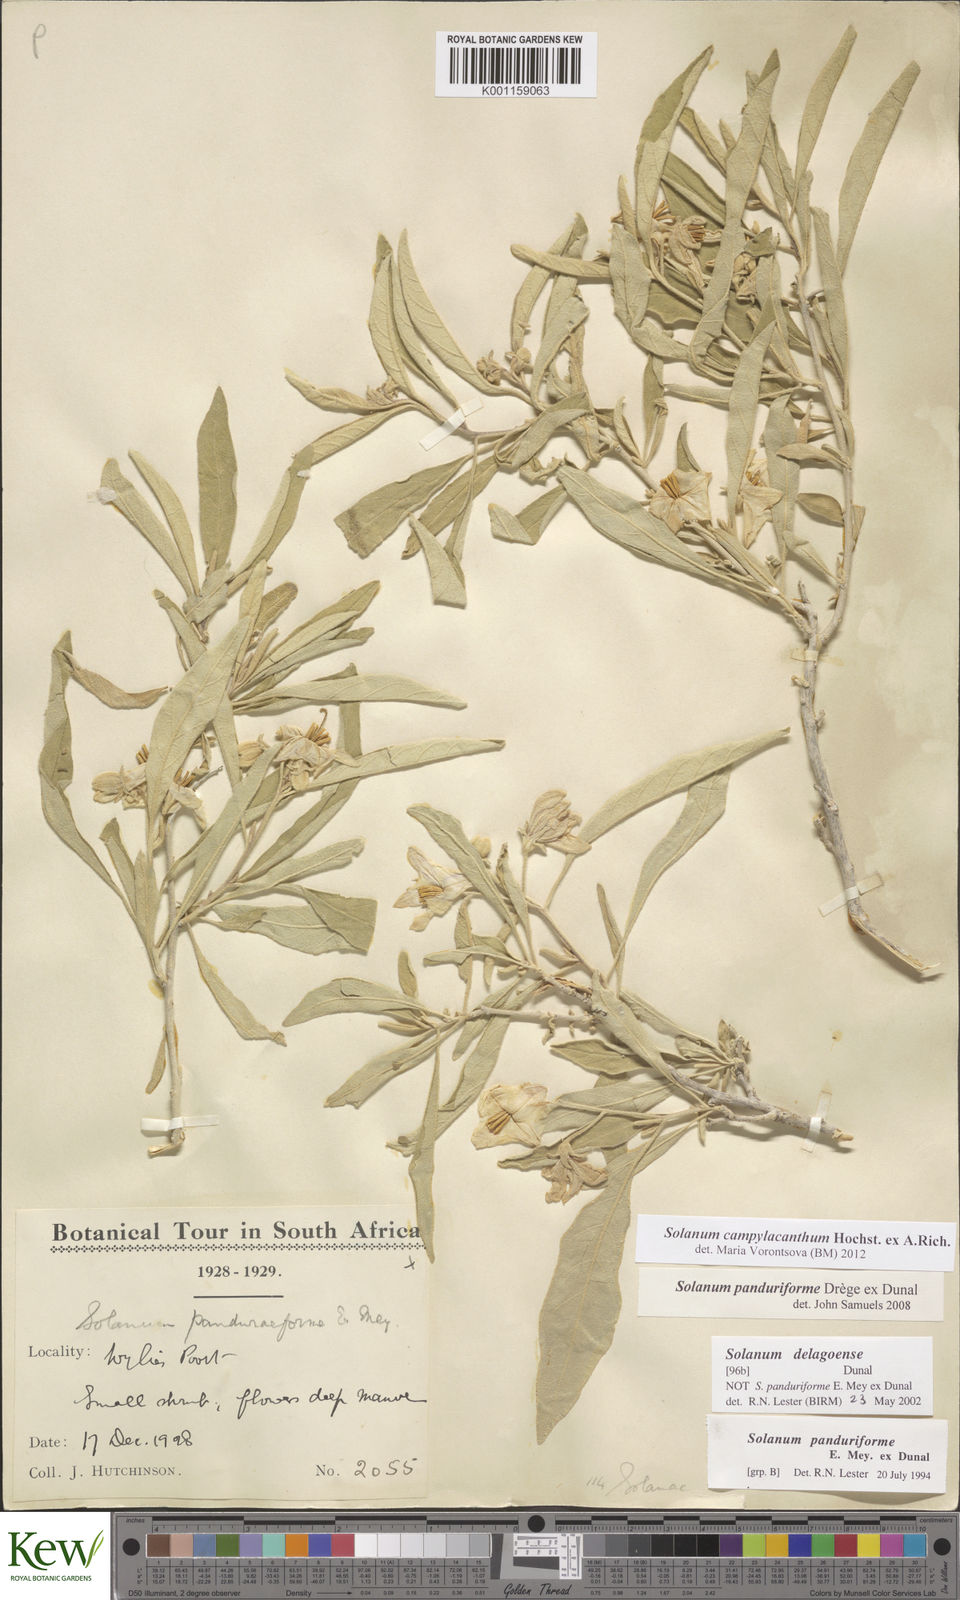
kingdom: Plantae
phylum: Tracheophyta
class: Magnoliopsida
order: Solanales
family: Solanaceae
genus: Solanum
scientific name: Solanum campylacanthum
